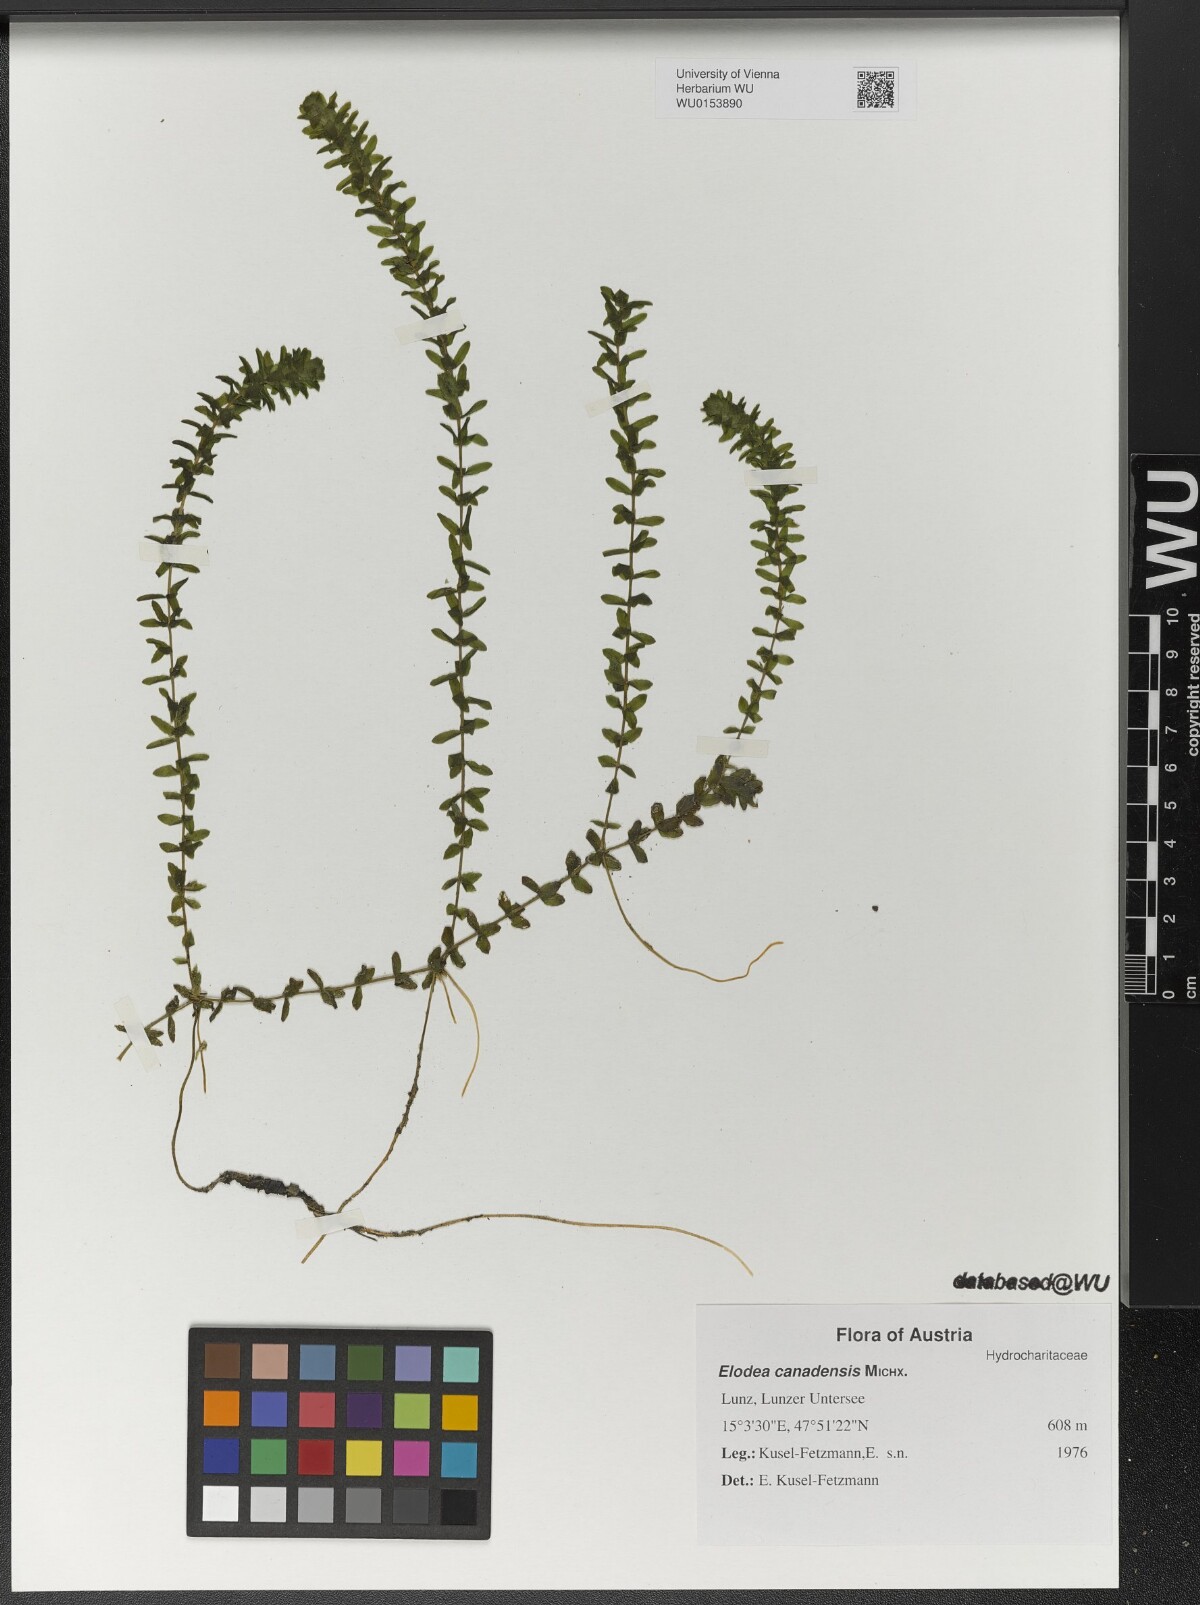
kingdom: Plantae
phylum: Tracheophyta
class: Liliopsida
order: Alismatales
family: Hydrocharitaceae
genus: Elodea
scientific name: Elodea canadensis
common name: Canadian waterweed
